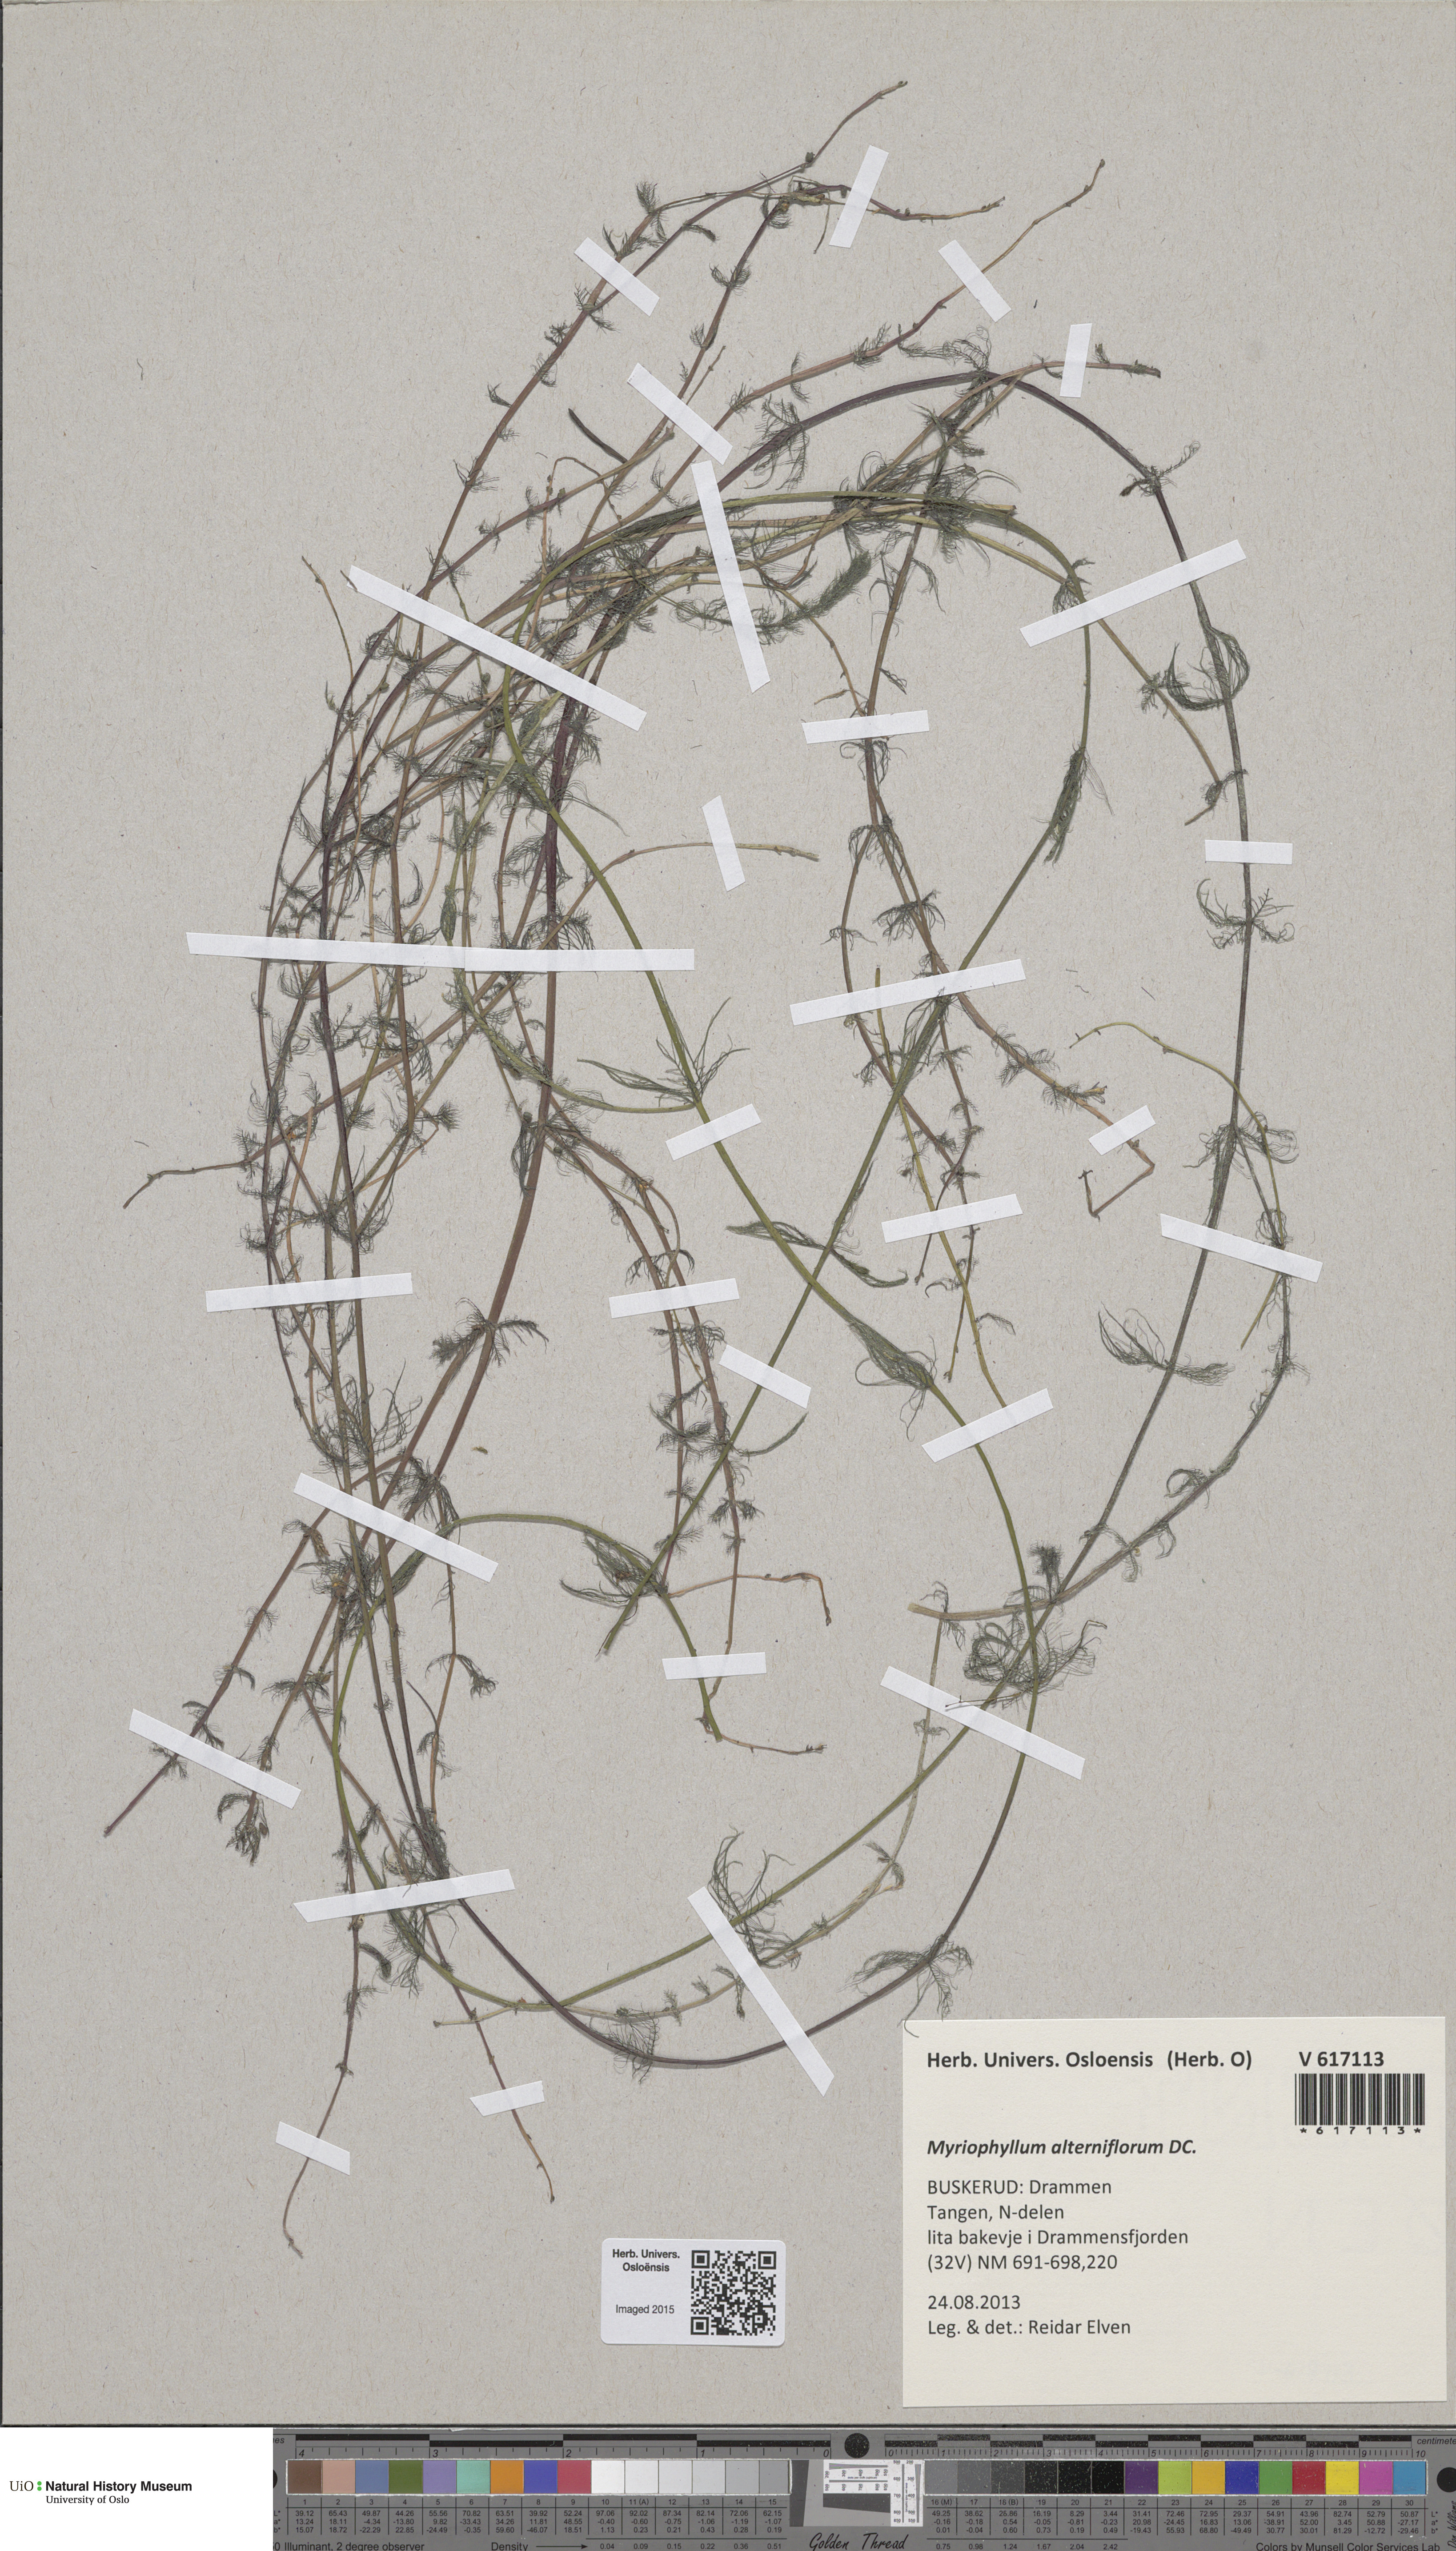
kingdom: Plantae
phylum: Tracheophyta
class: Magnoliopsida
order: Saxifragales
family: Haloragaceae
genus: Myriophyllum
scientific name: Myriophyllum alterniflorum
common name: Alternate water-milfoil
